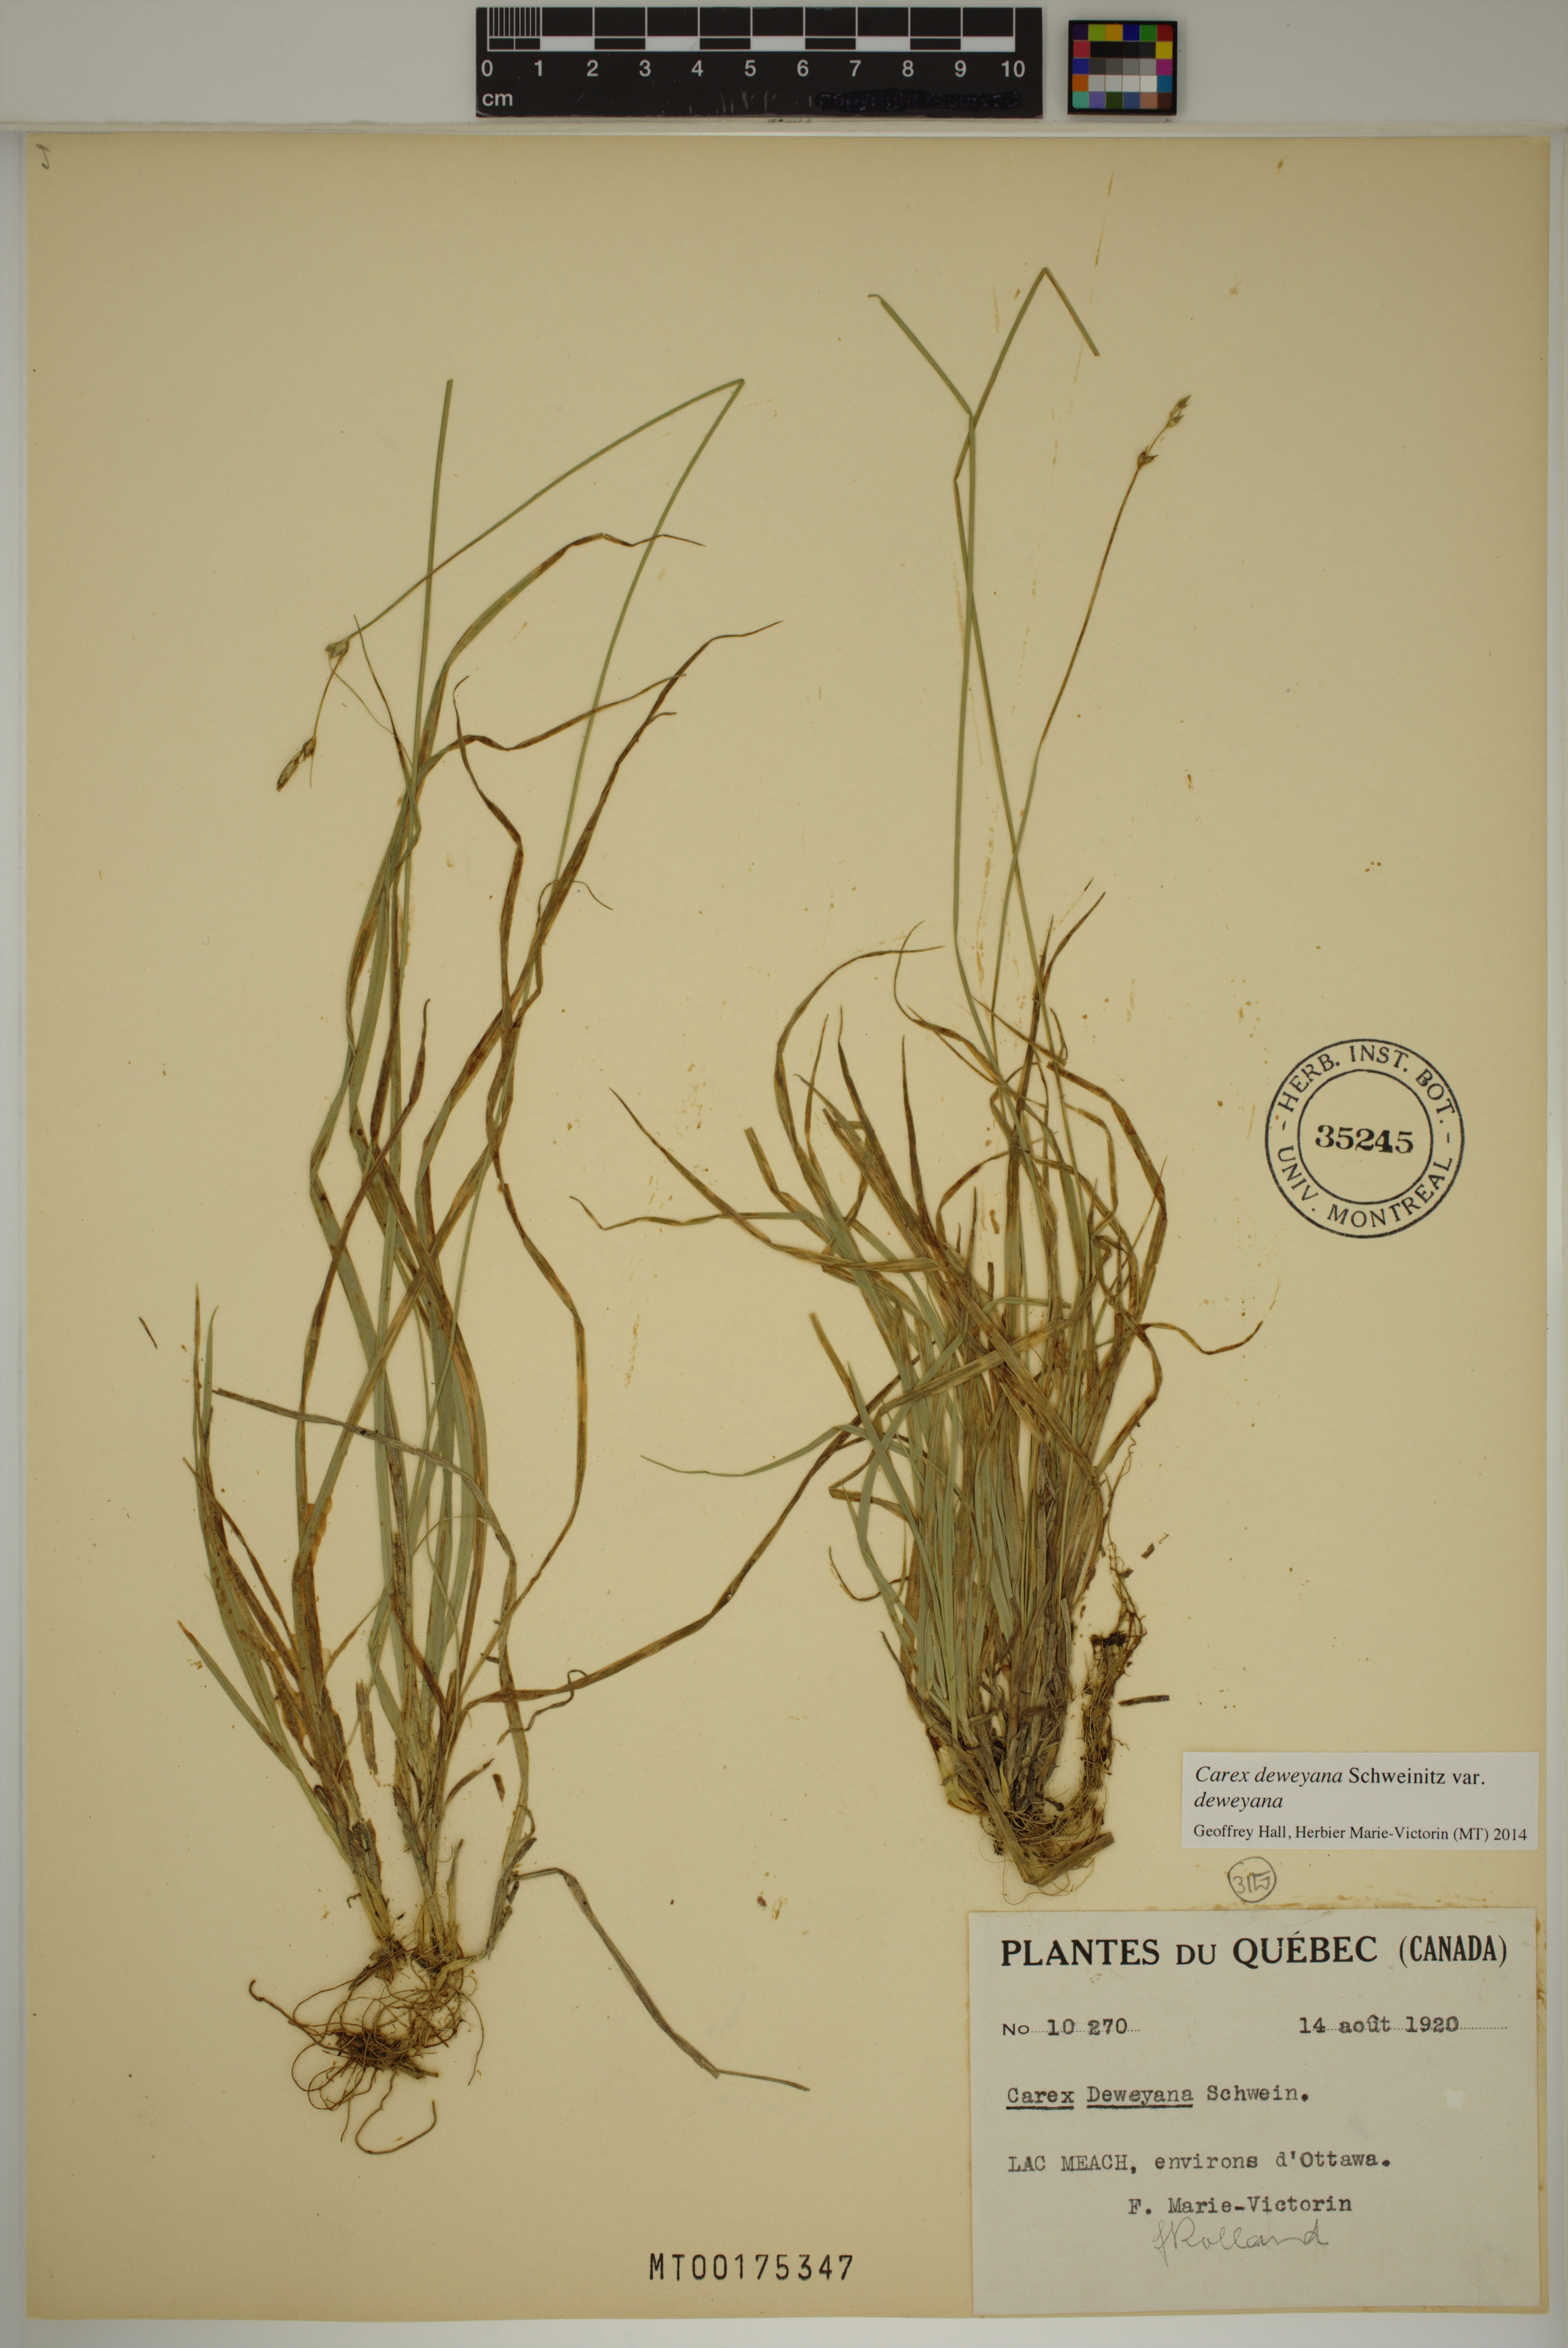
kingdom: Plantae
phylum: Tracheophyta
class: Liliopsida
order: Poales
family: Cyperaceae
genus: Carex
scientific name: Carex deweyana
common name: Dewey's sedge
